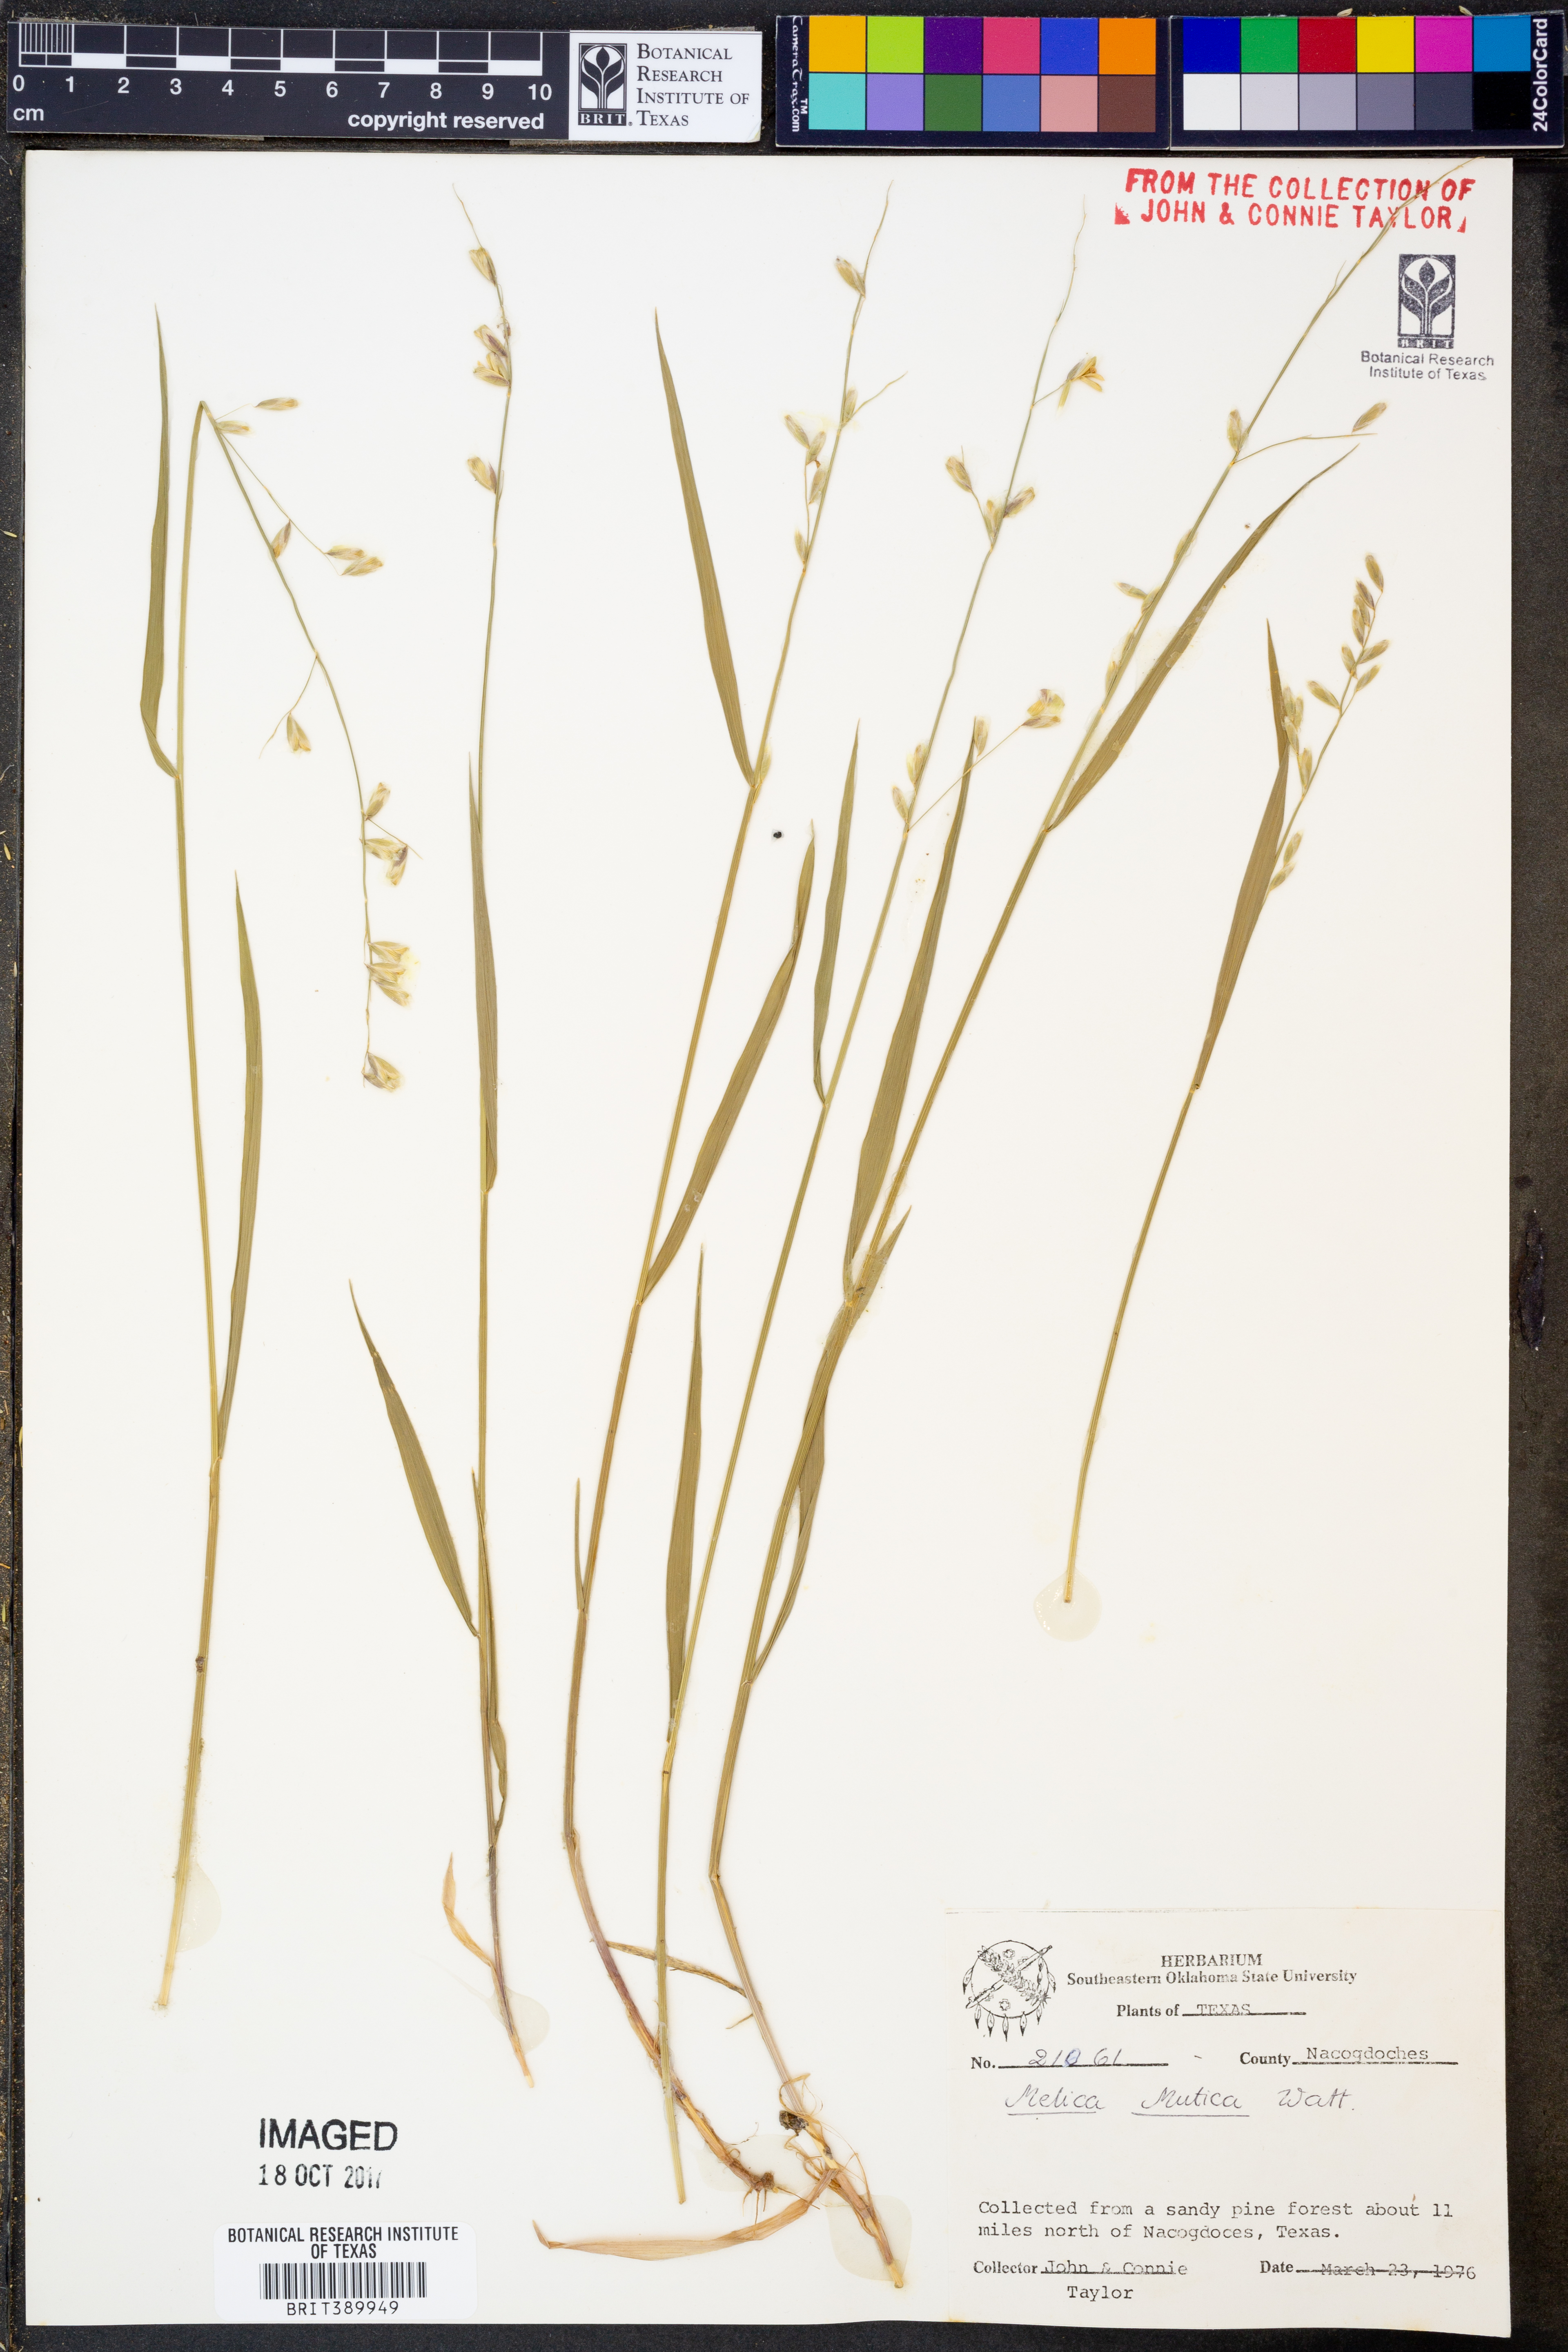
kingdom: Plantae
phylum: Tracheophyta
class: Liliopsida
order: Poales
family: Poaceae
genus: Melica
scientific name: Melica mutica
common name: Two-flower melic
